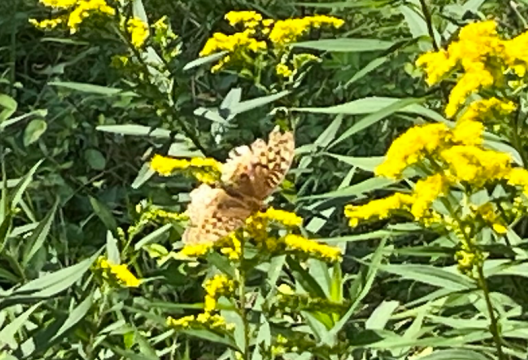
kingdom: Animalia
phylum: Arthropoda
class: Insecta
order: Lepidoptera
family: Nymphalidae
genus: Speyeria
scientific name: Speyeria cybele
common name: Great Spangled Fritillary
